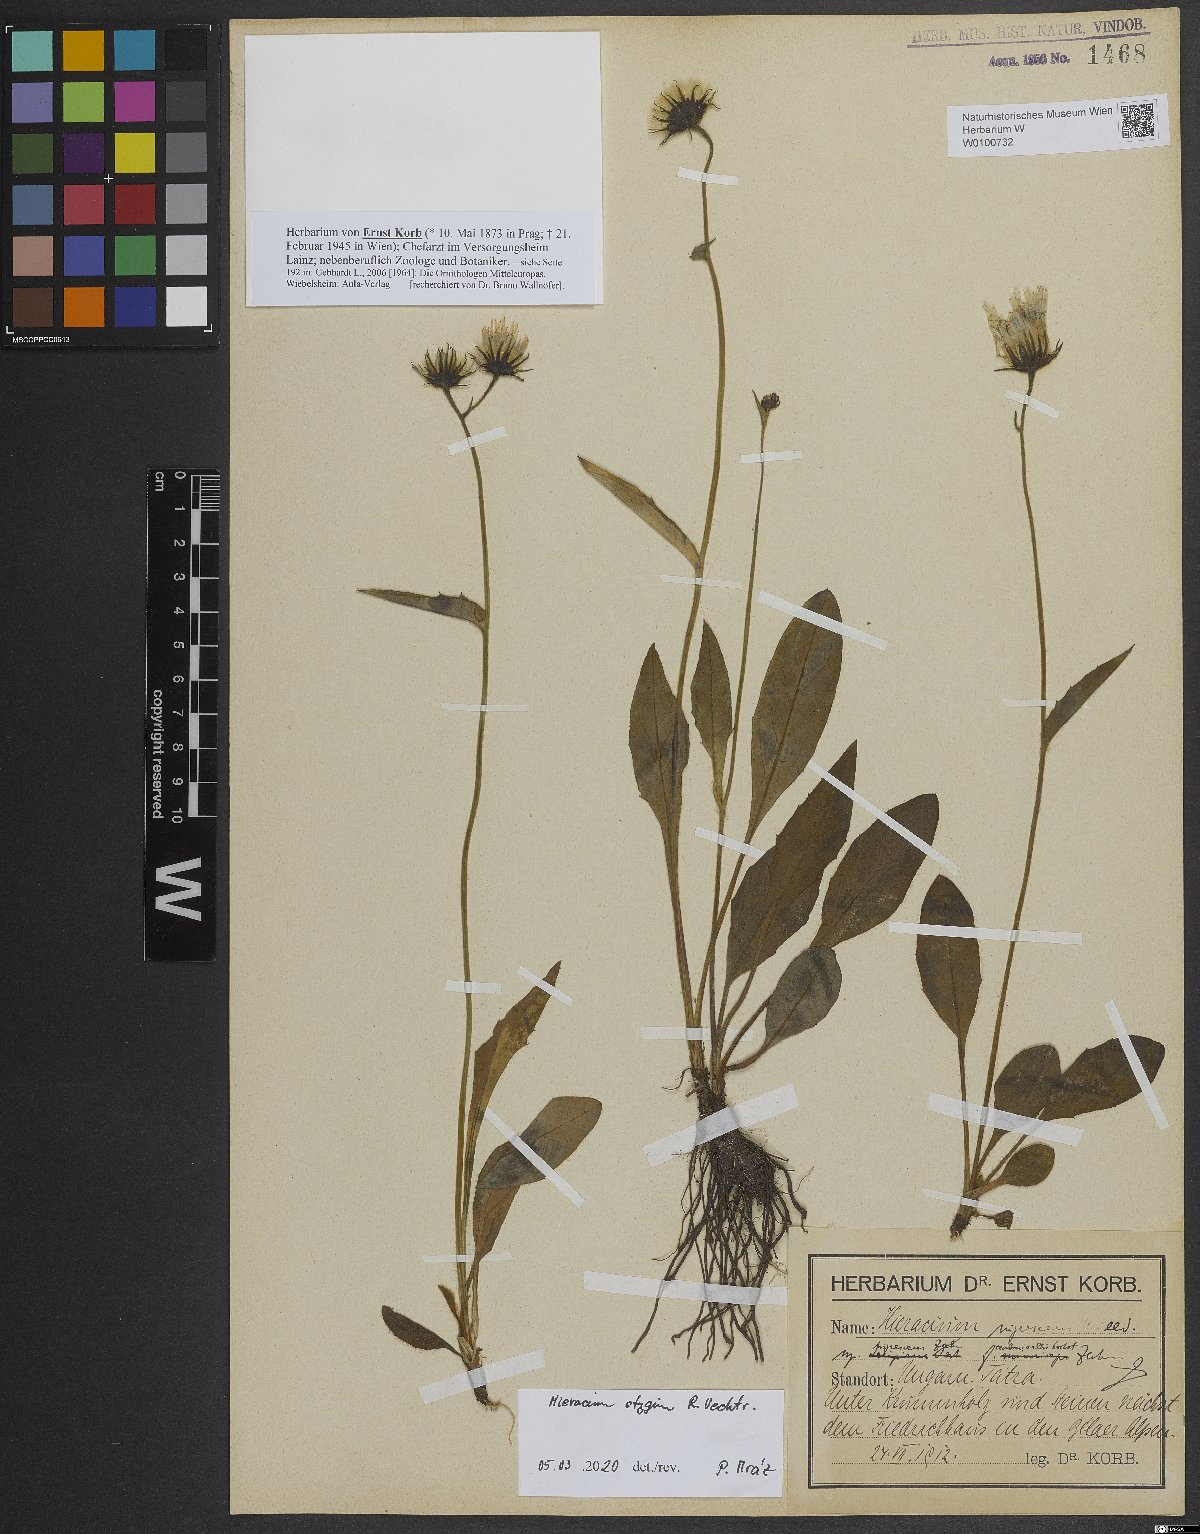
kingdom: Plantae
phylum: Tracheophyta
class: Magnoliopsida
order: Asterales
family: Asteraceae
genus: Hieracium
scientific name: Hieracium chlorocephalum
